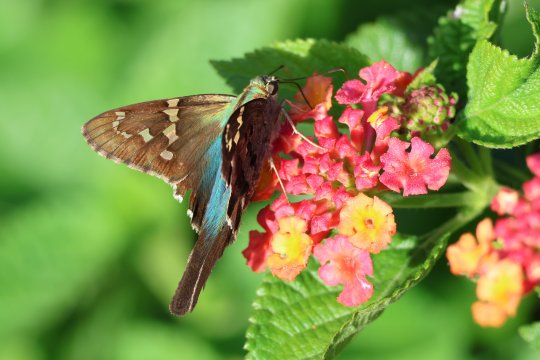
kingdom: Animalia
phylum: Arthropoda
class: Insecta
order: Lepidoptera
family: Hesperiidae
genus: Urbanus
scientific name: Urbanus proteus
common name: Long-tailed Skipper
